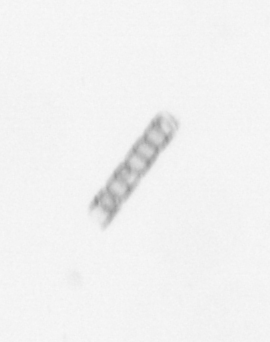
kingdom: Chromista
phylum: Ochrophyta
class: Bacillariophyceae
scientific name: Bacillariophyceae
